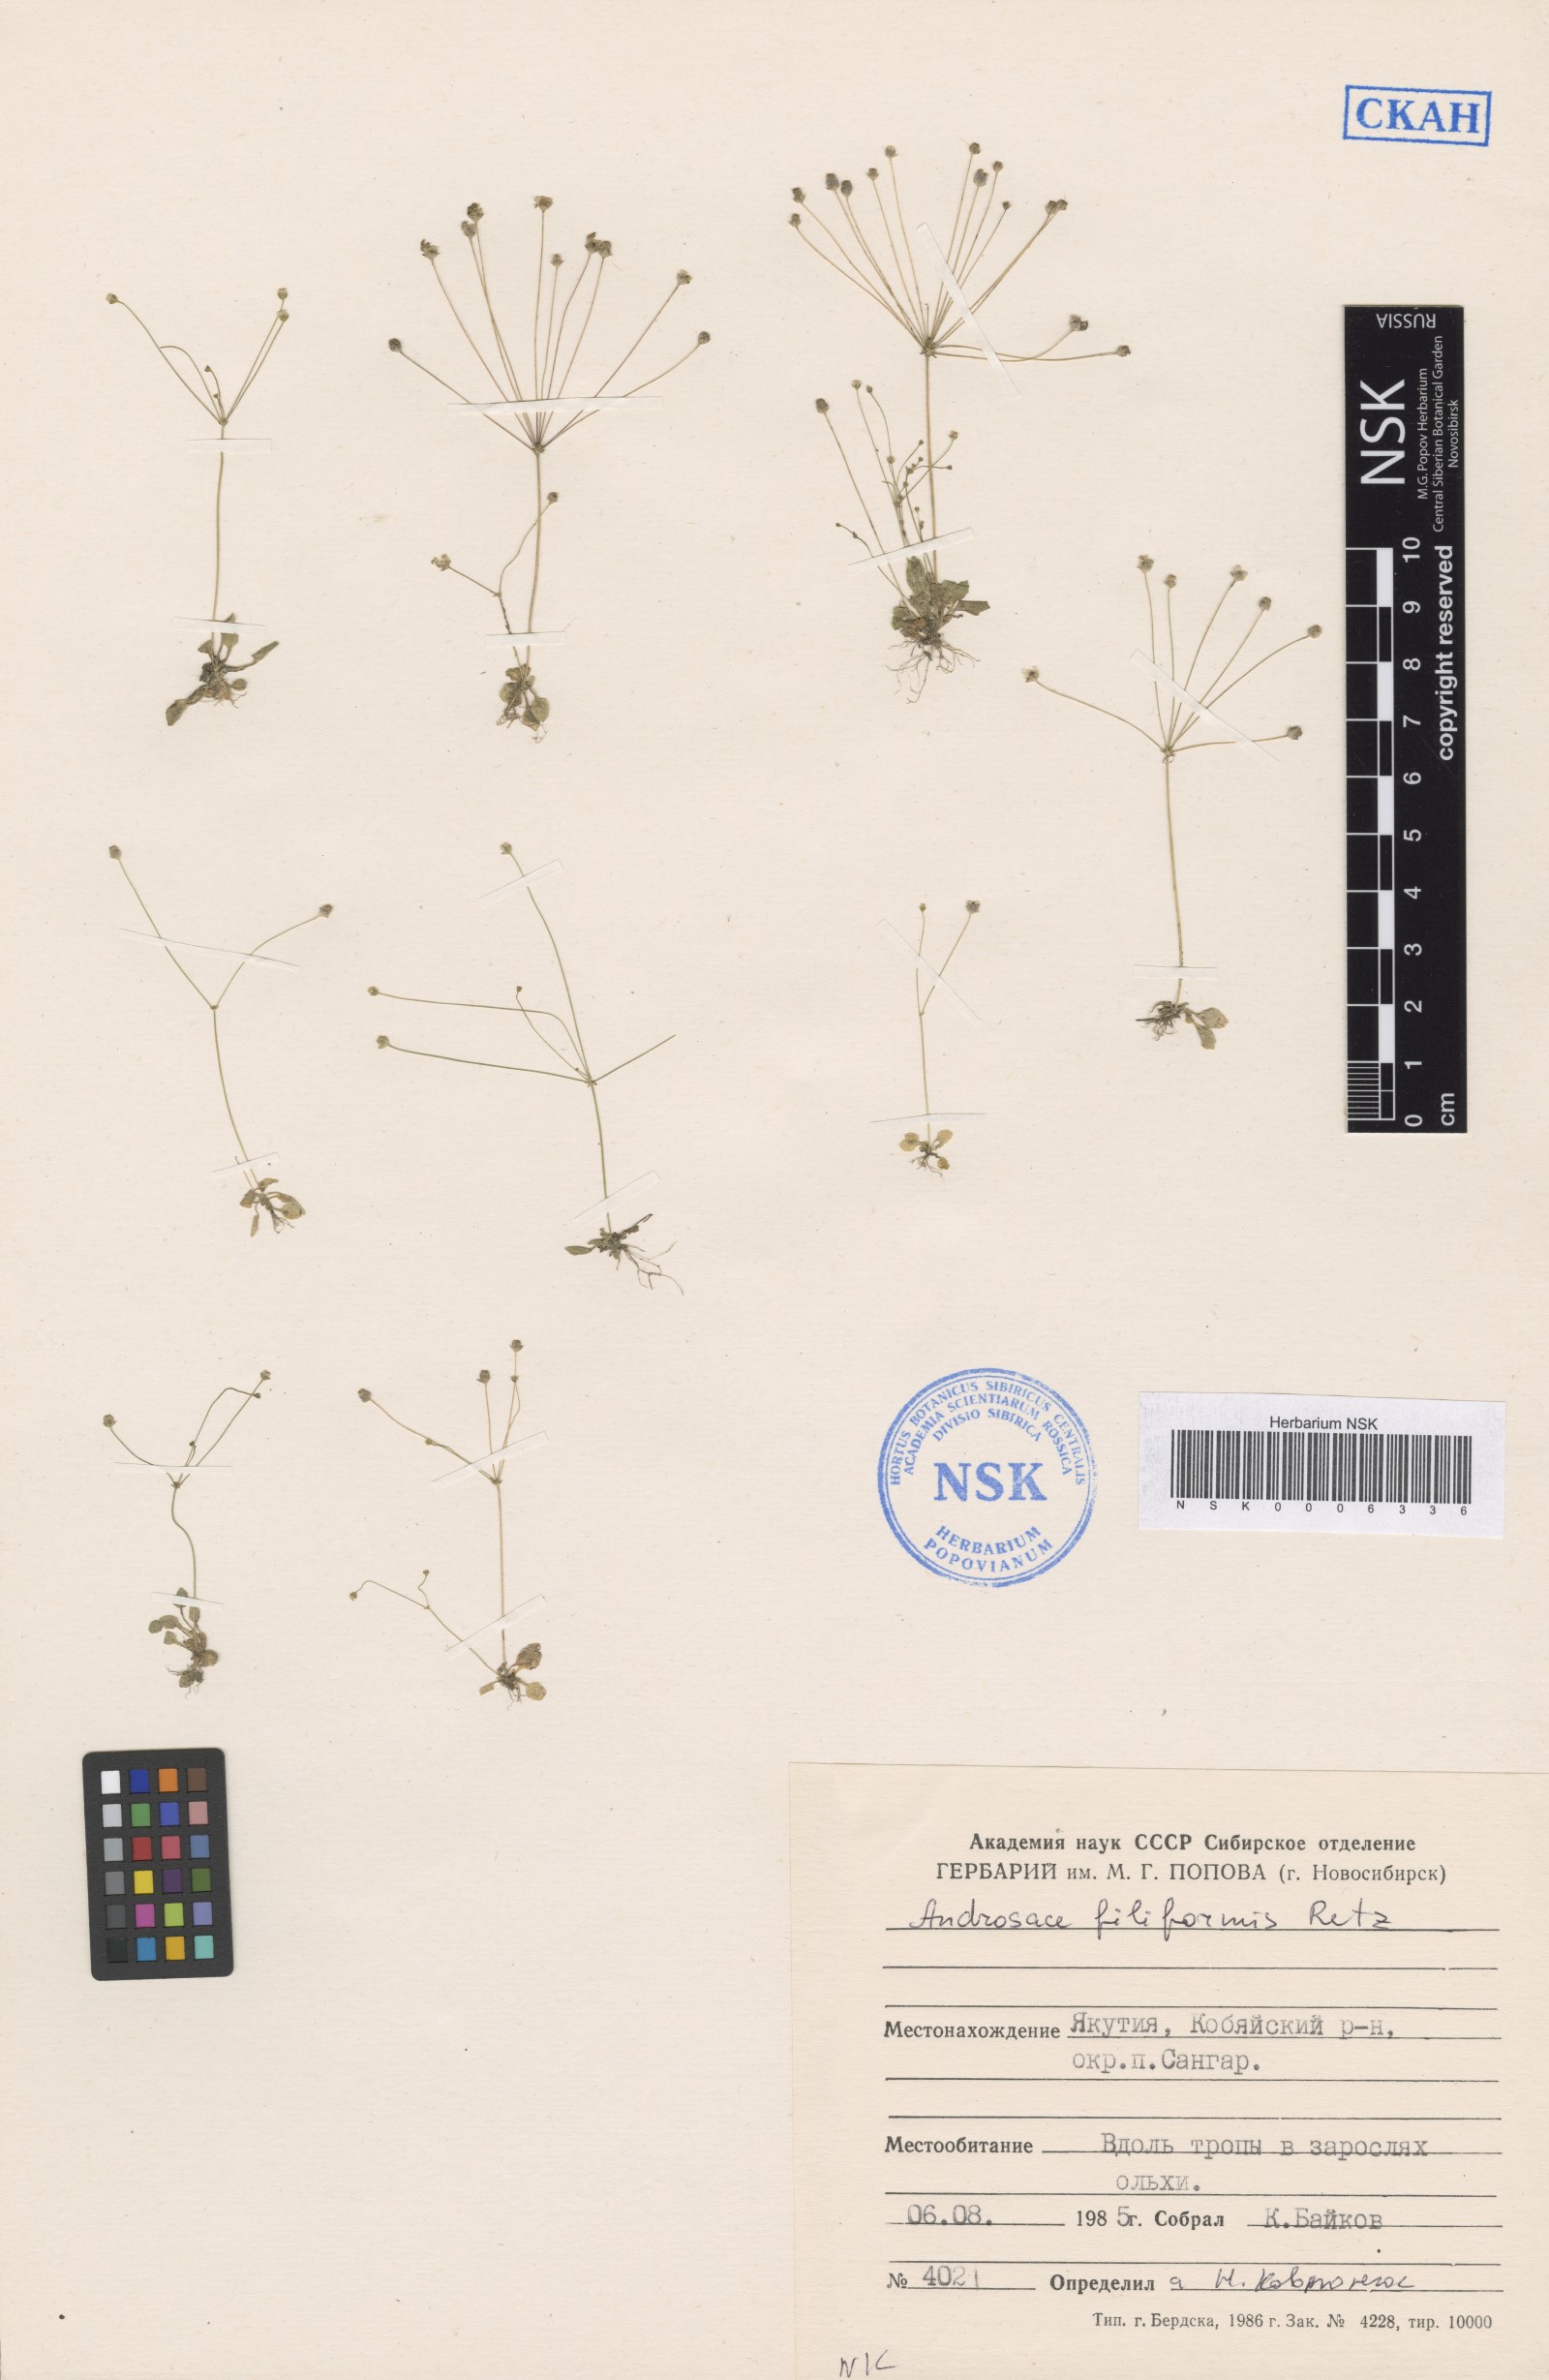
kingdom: Plantae
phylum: Tracheophyta
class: Magnoliopsida
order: Ericales
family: Primulaceae
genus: Androsace
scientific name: Androsace filiformis
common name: Filiform rock jasmine
